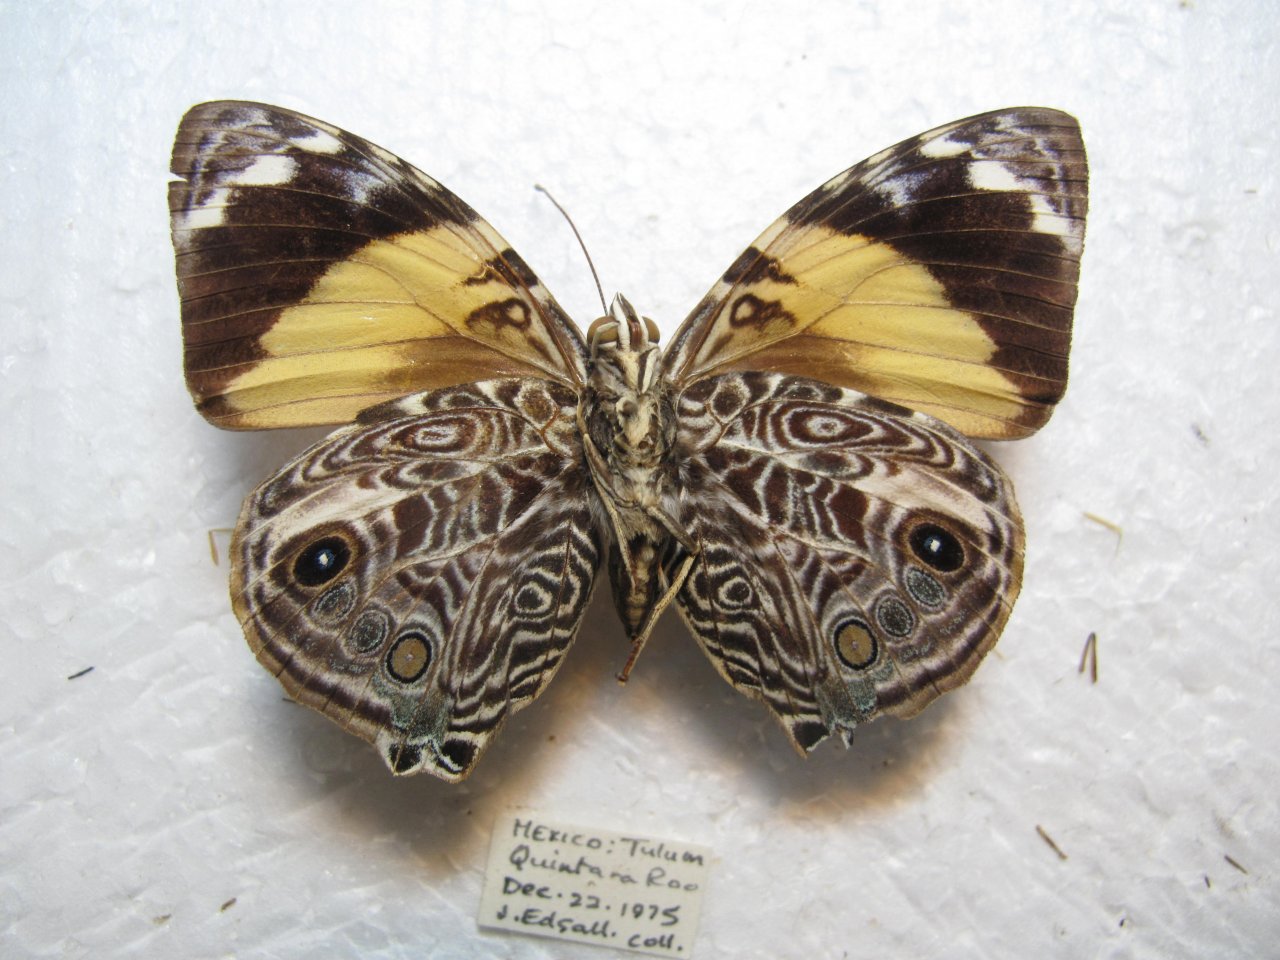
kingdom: Animalia
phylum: Arthropoda
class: Insecta
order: Lepidoptera
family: Nymphalidae
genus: Smyrna
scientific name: Smyrna blomfildia
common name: Blomfild's Beauty
